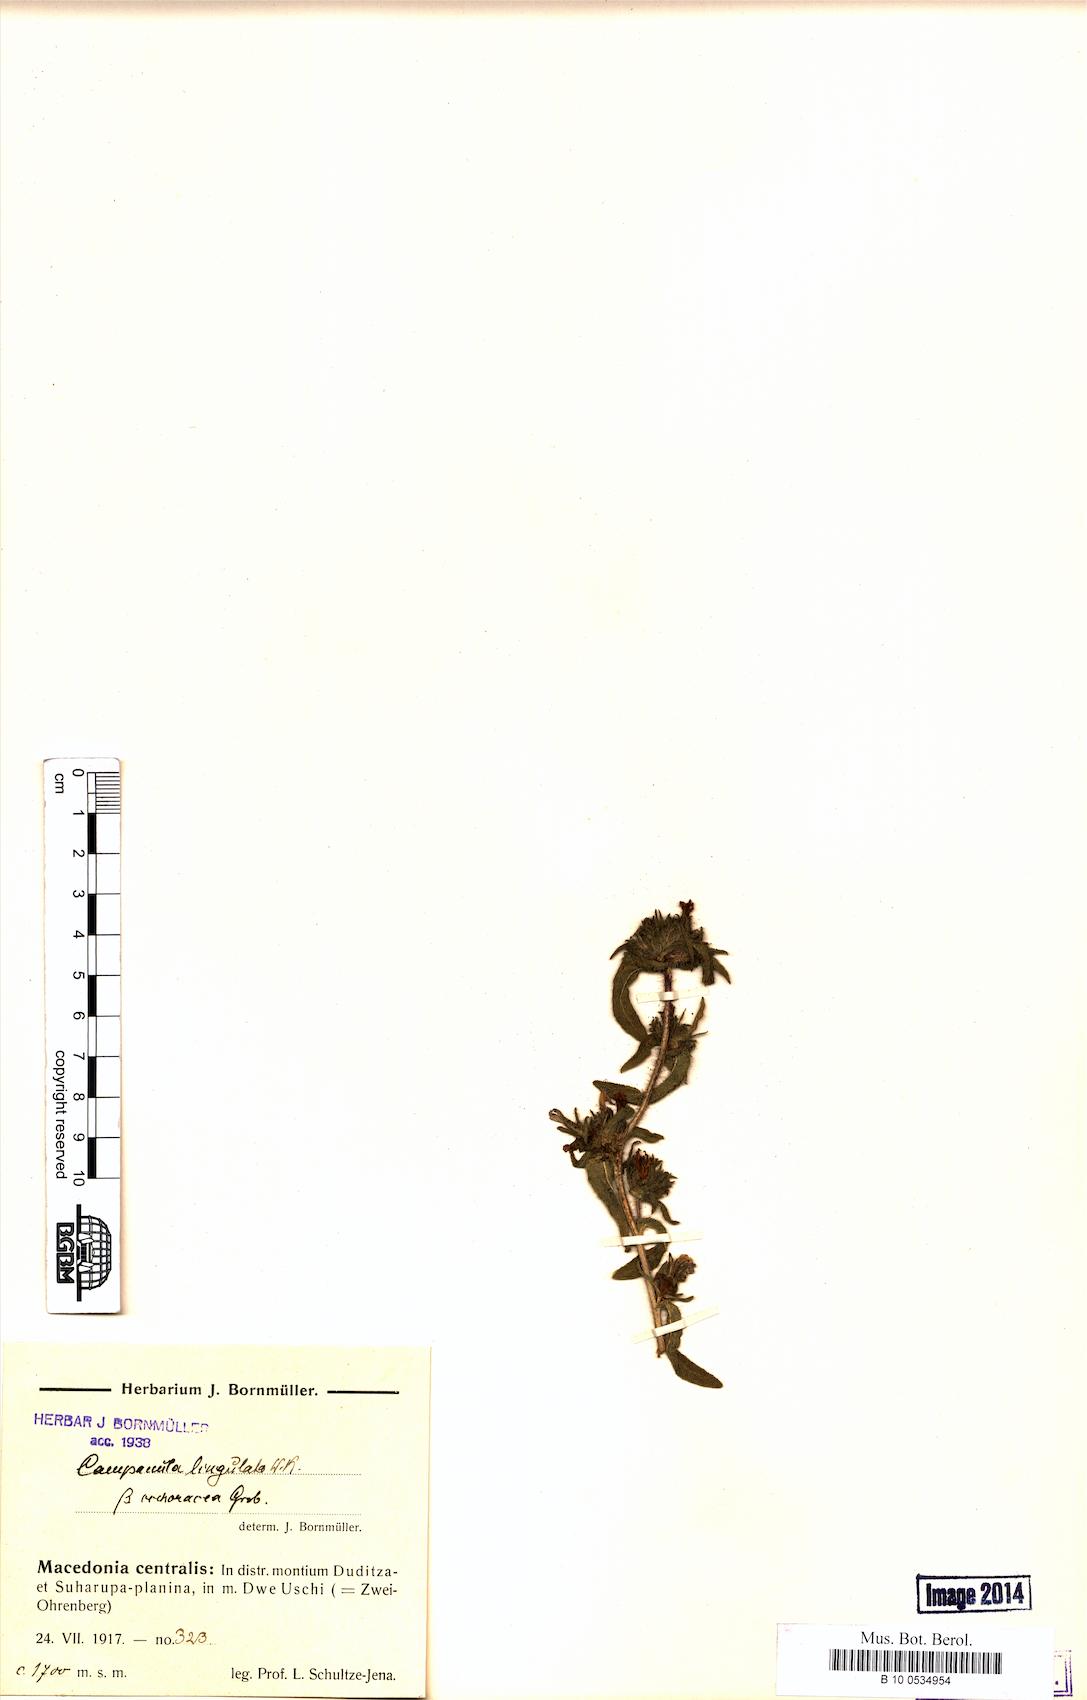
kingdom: Plantae
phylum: Tracheophyta
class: Magnoliopsida
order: Asterales
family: Campanulaceae
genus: Campanula
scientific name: Campanula lingulata
